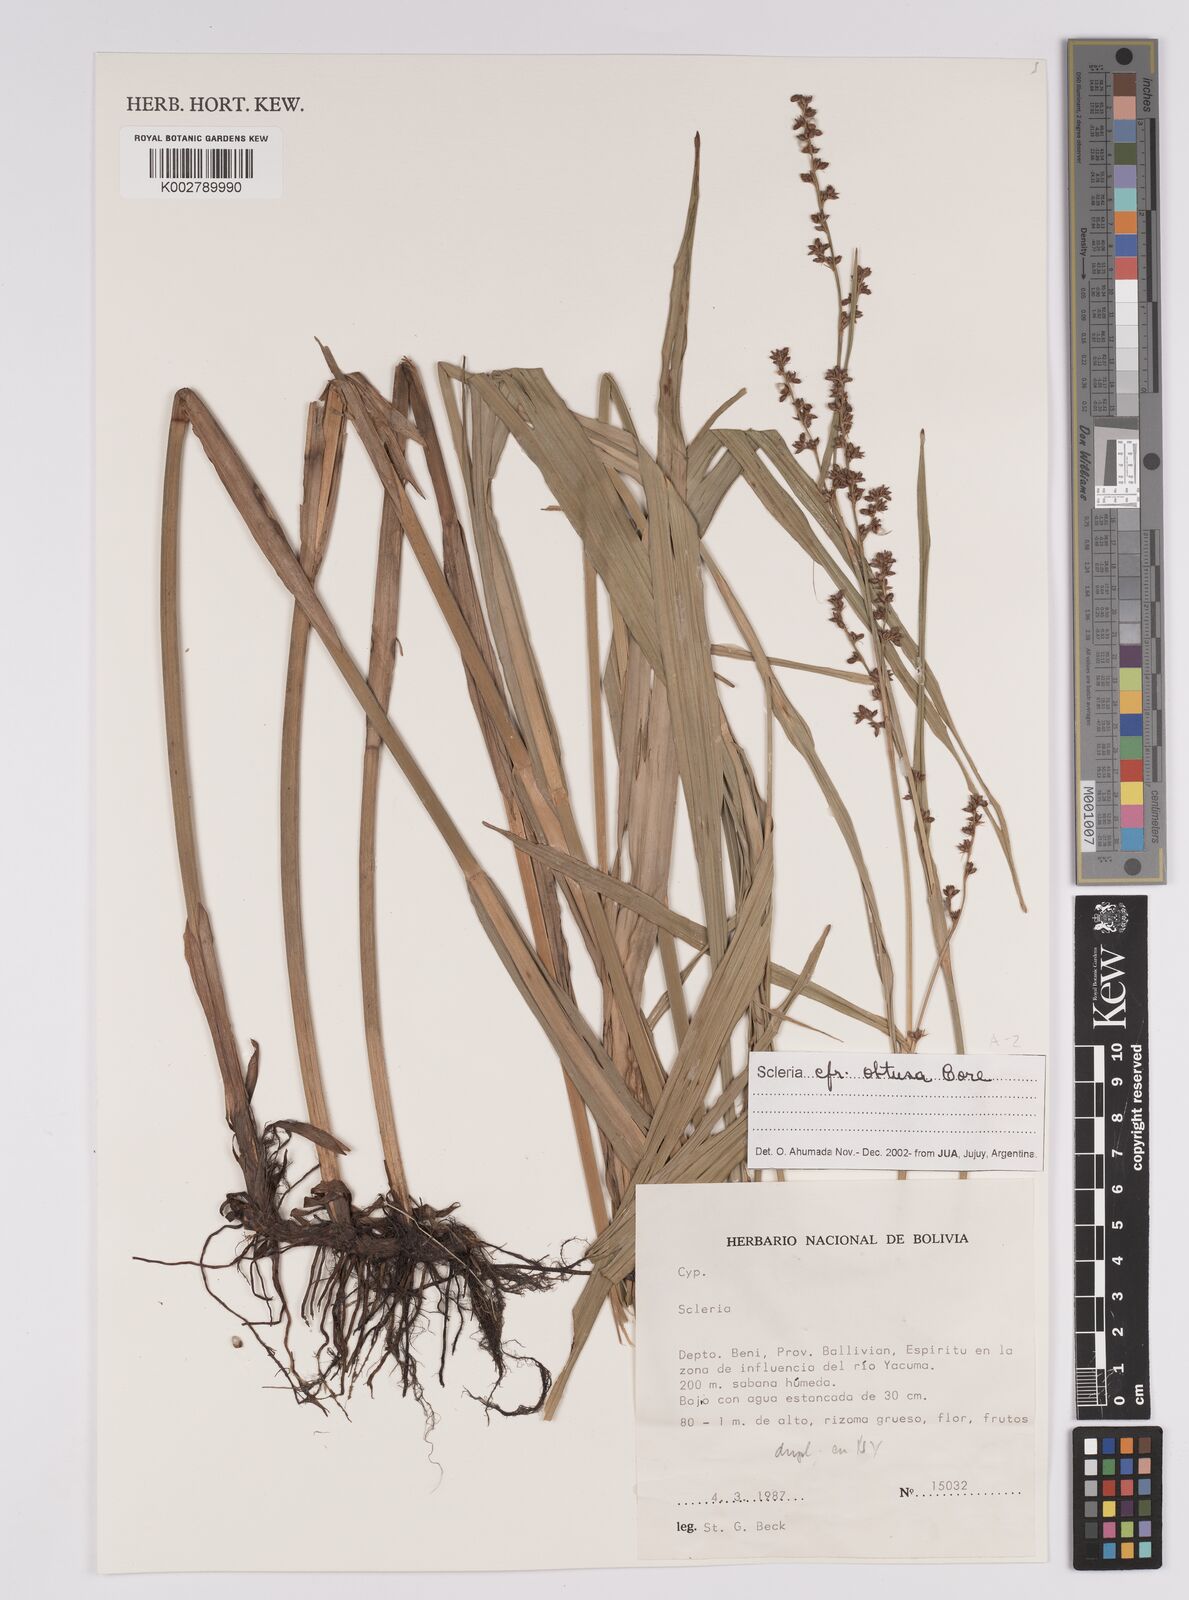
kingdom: Plantae
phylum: Tracheophyta
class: Liliopsida
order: Poales
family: Cyperaceae
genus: Scleria
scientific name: Scleria obtusa
